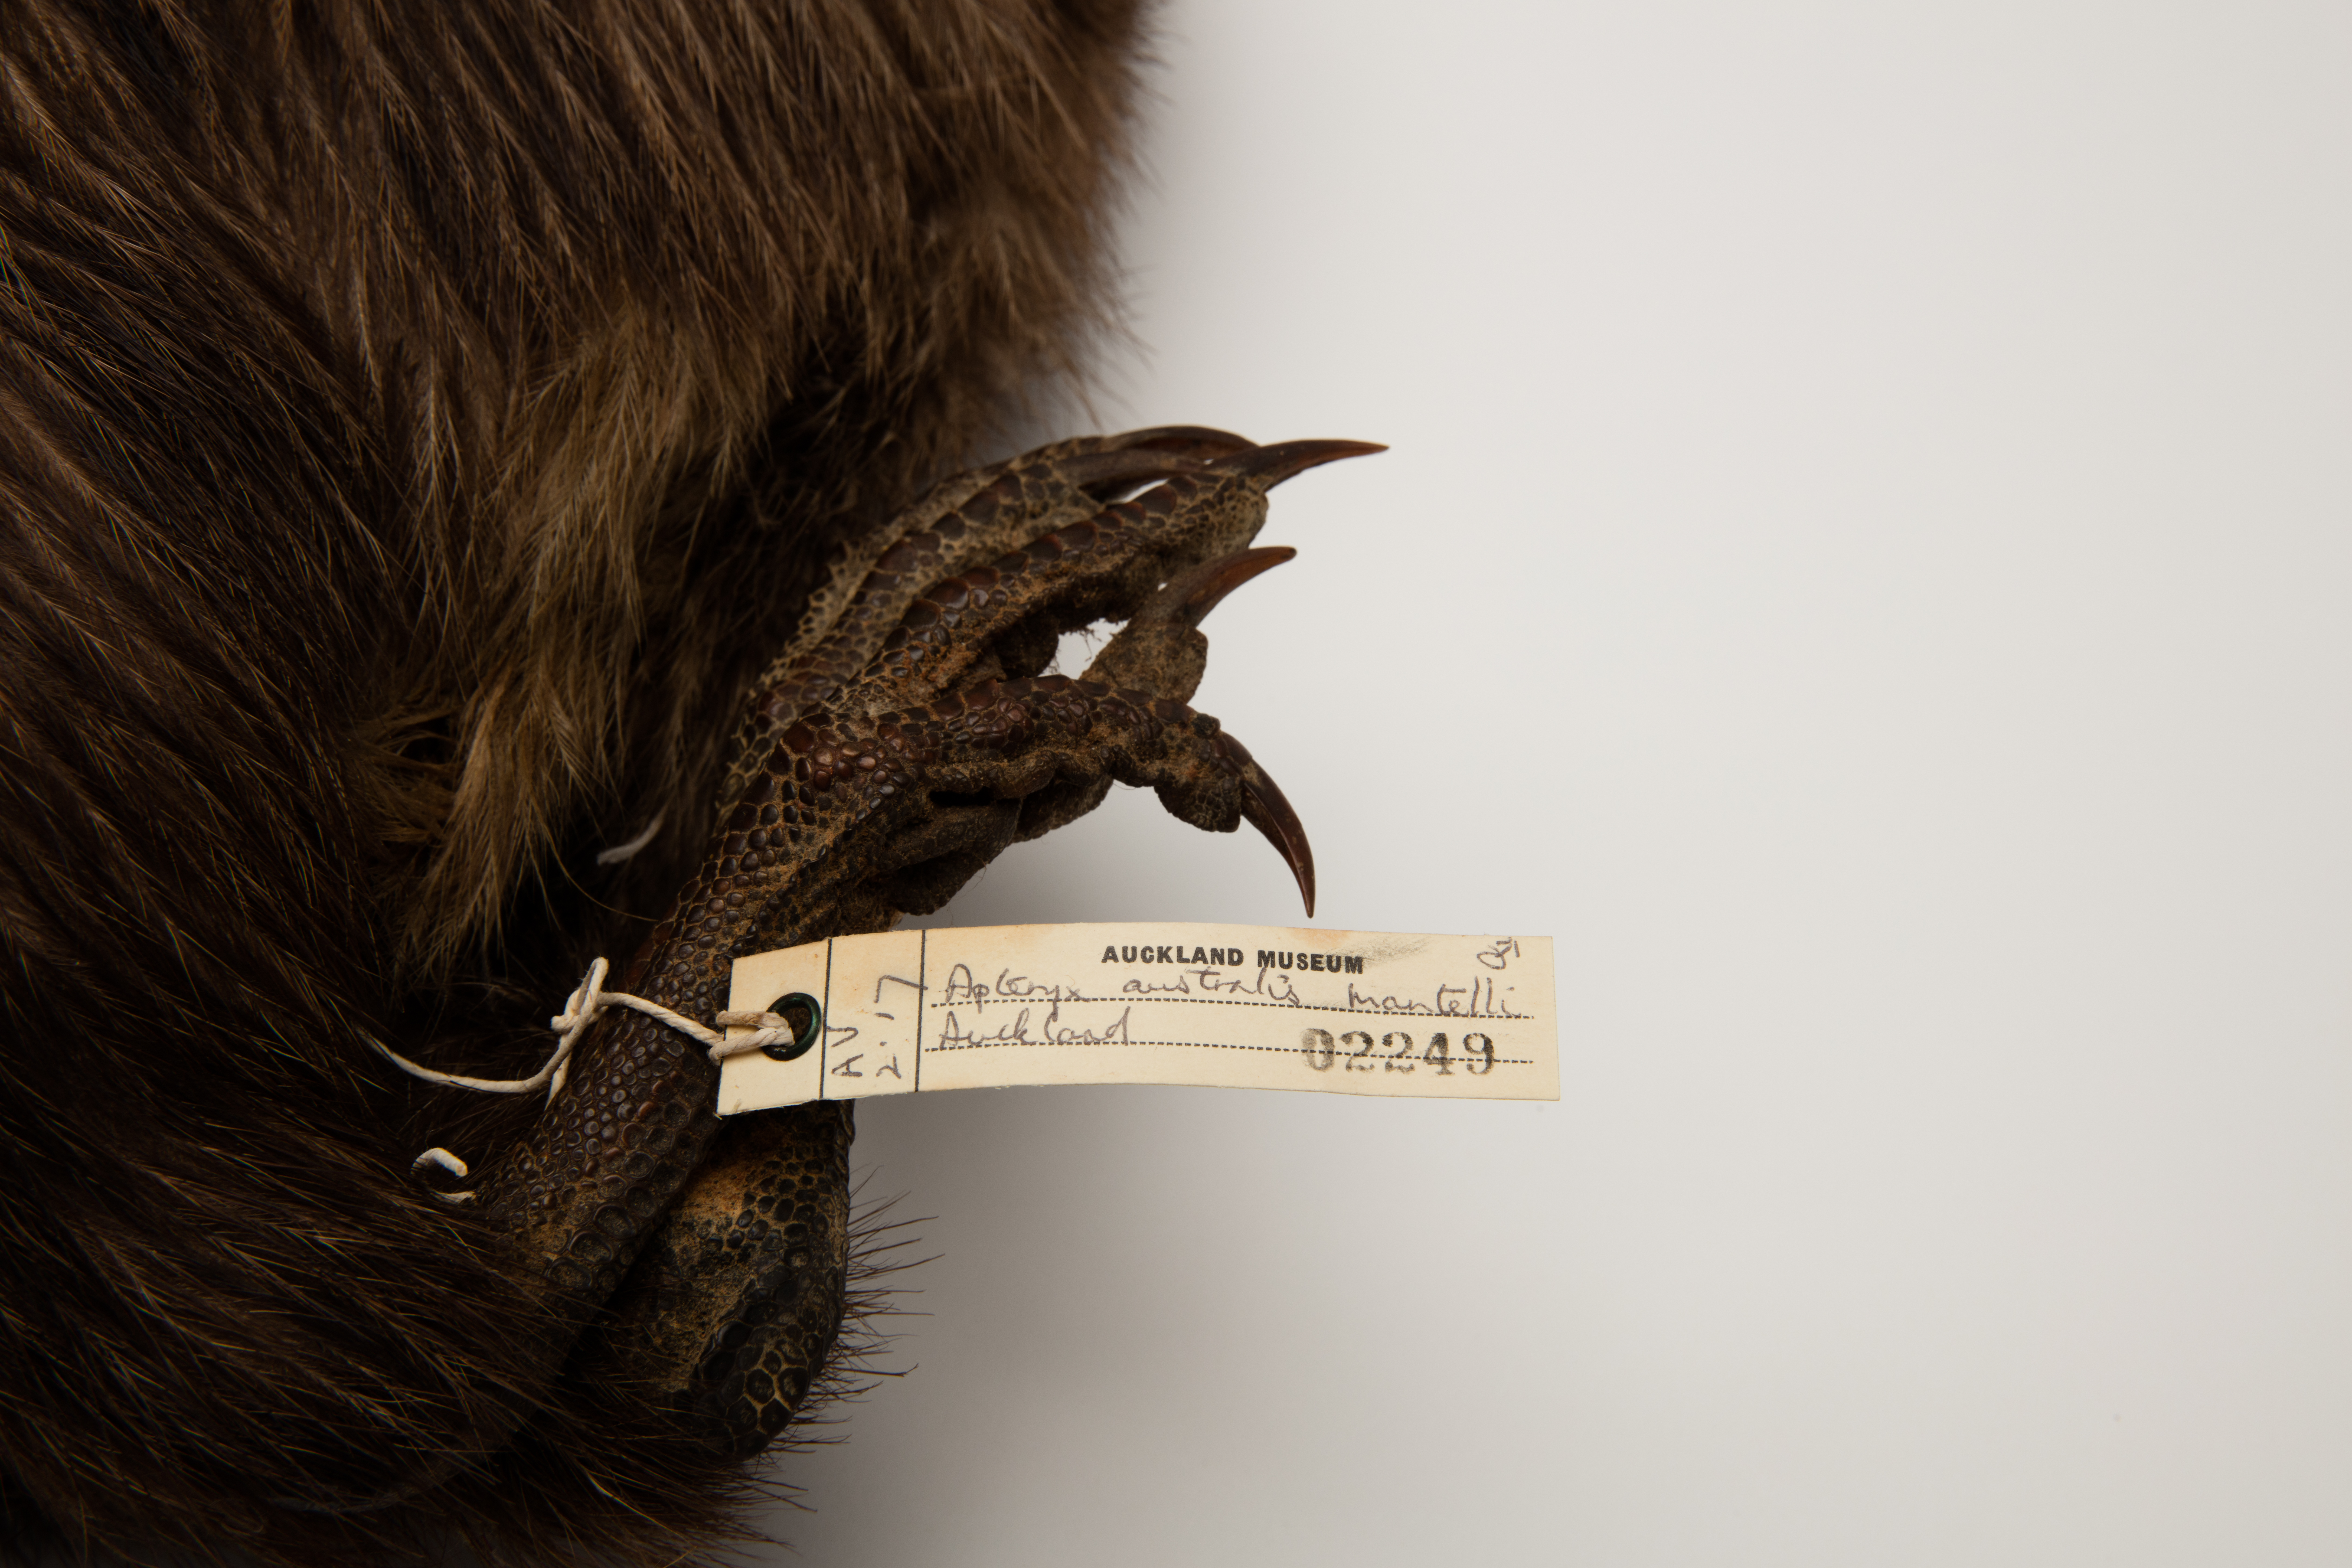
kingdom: Animalia
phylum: Chordata
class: Aves
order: Apterygiformes
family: Apterygidae
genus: Apteryx
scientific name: Apteryx mantelli
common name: North island brown kiwi
